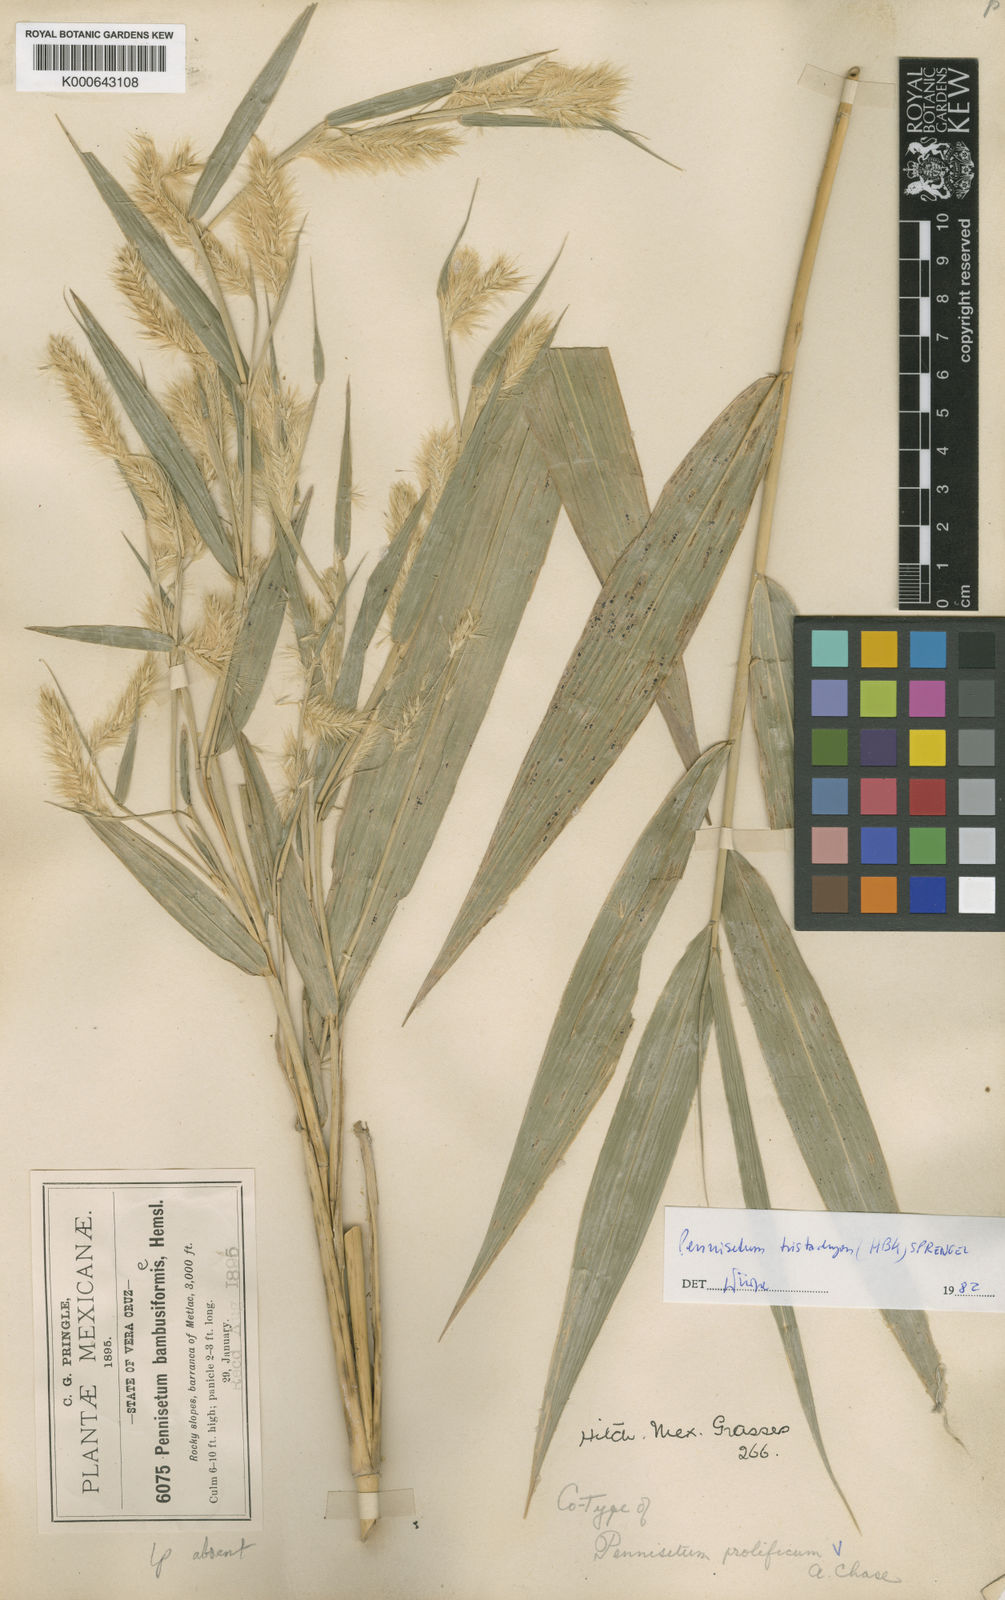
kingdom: Plantae
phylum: Tracheophyta
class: Liliopsida
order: Poales
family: Poaceae
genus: Cenchrus
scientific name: Cenchrus prolificus
